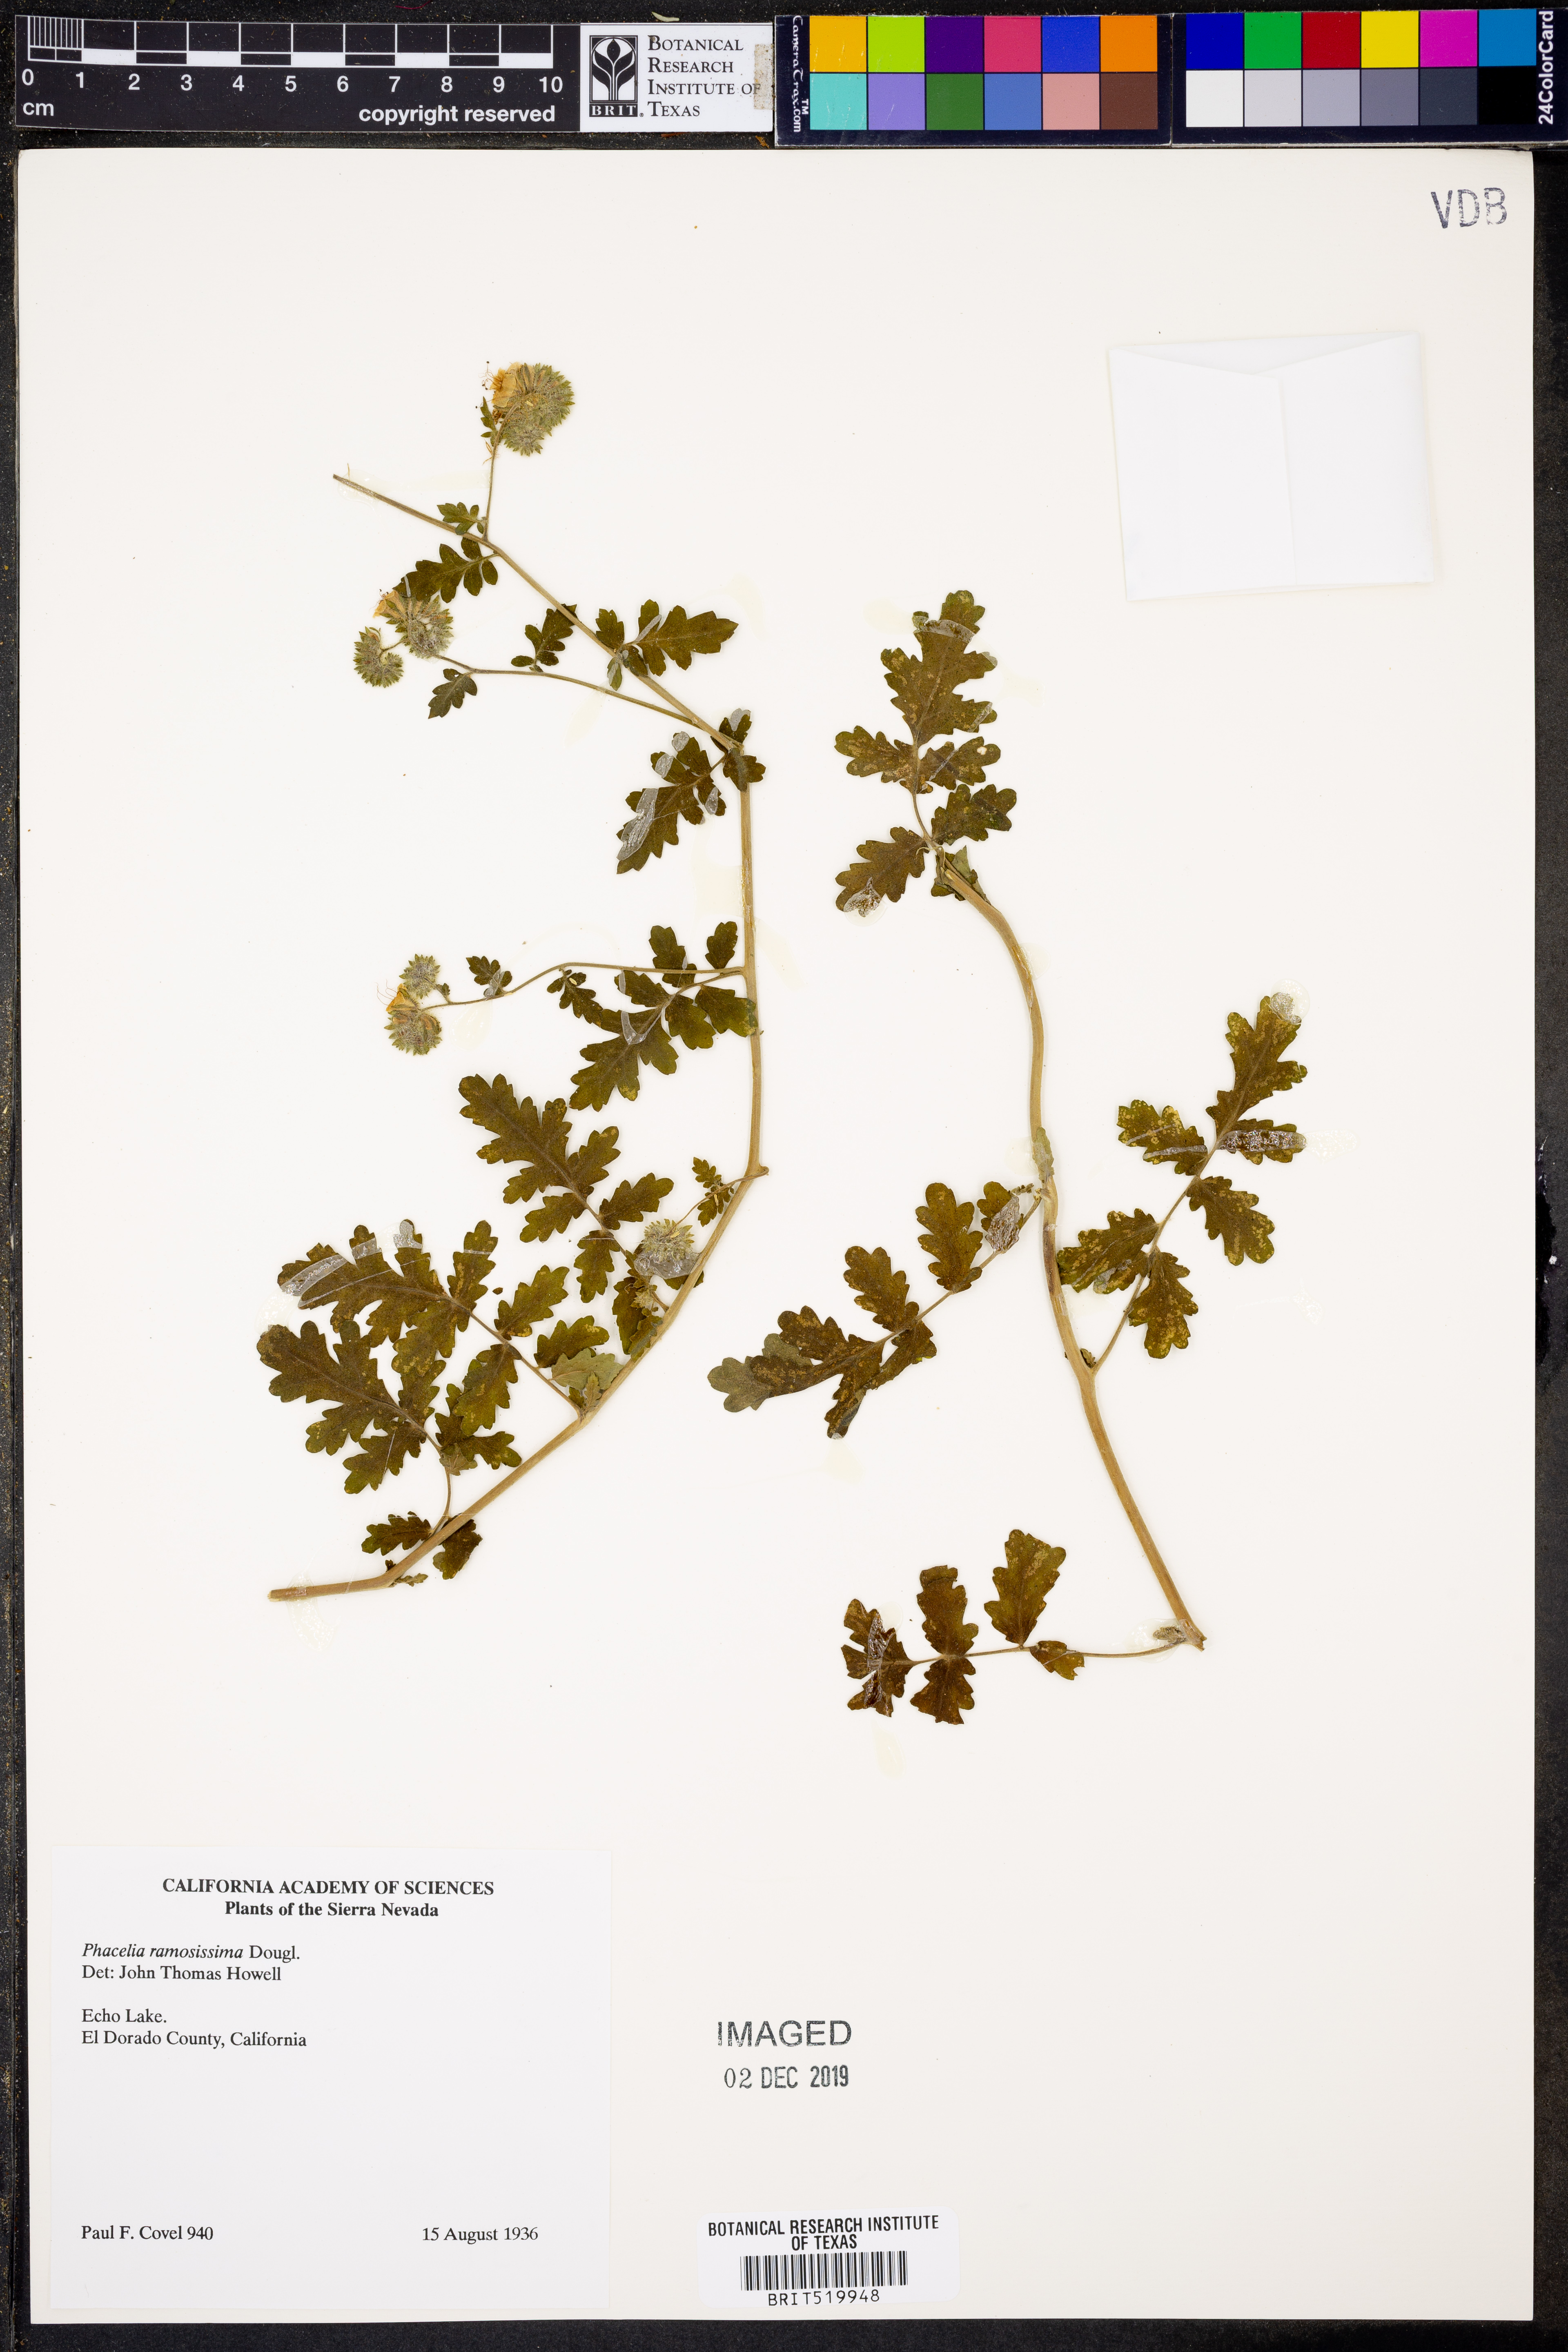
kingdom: Plantae
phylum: Tracheophyta
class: Magnoliopsida
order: Boraginales
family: Hydrophyllaceae
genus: Phacelia
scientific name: Phacelia ramosissima
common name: Branching phacelia
